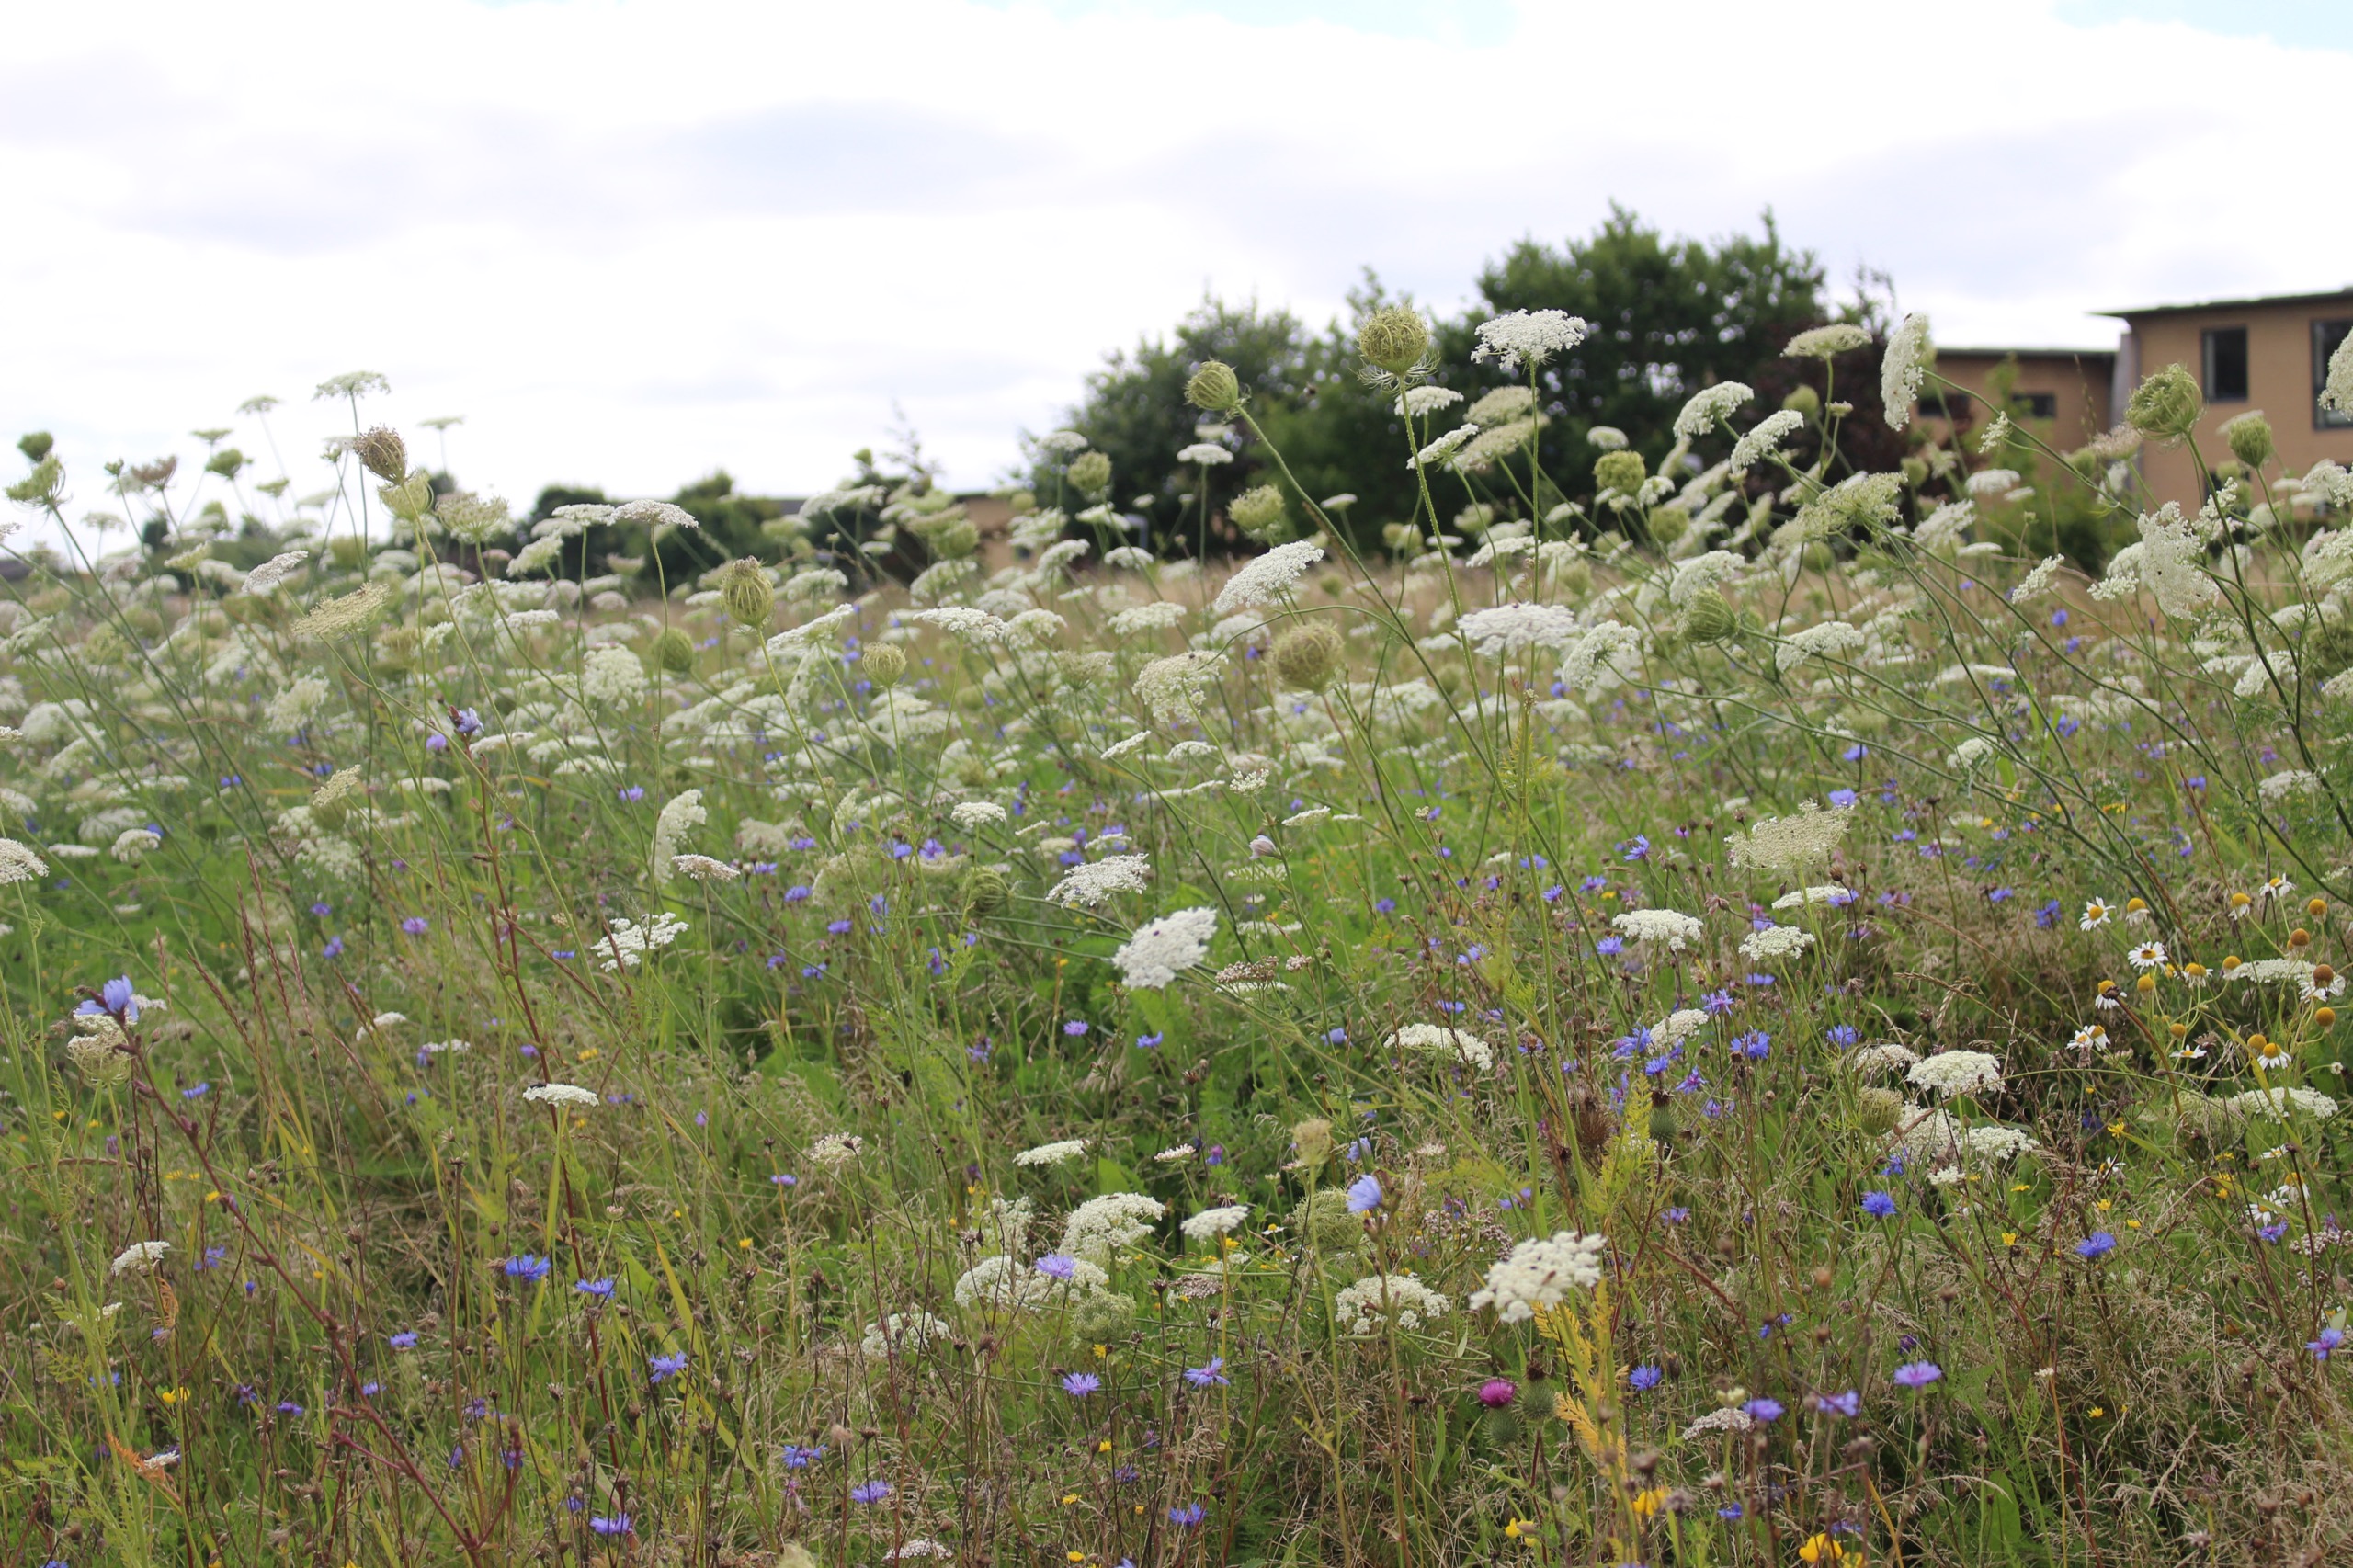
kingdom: Plantae
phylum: Tracheophyta
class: Magnoliopsida
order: Apiales
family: Apiaceae
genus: Daucus
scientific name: Daucus carota
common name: Gulerod
